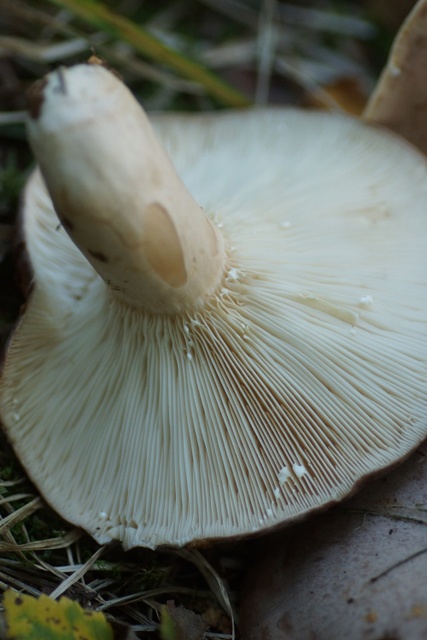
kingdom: Fungi
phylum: Basidiomycota
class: Agaricomycetes
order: Russulales
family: Russulaceae
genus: Lactarius
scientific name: Lactarius trivialis
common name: nordisk mælkehat
